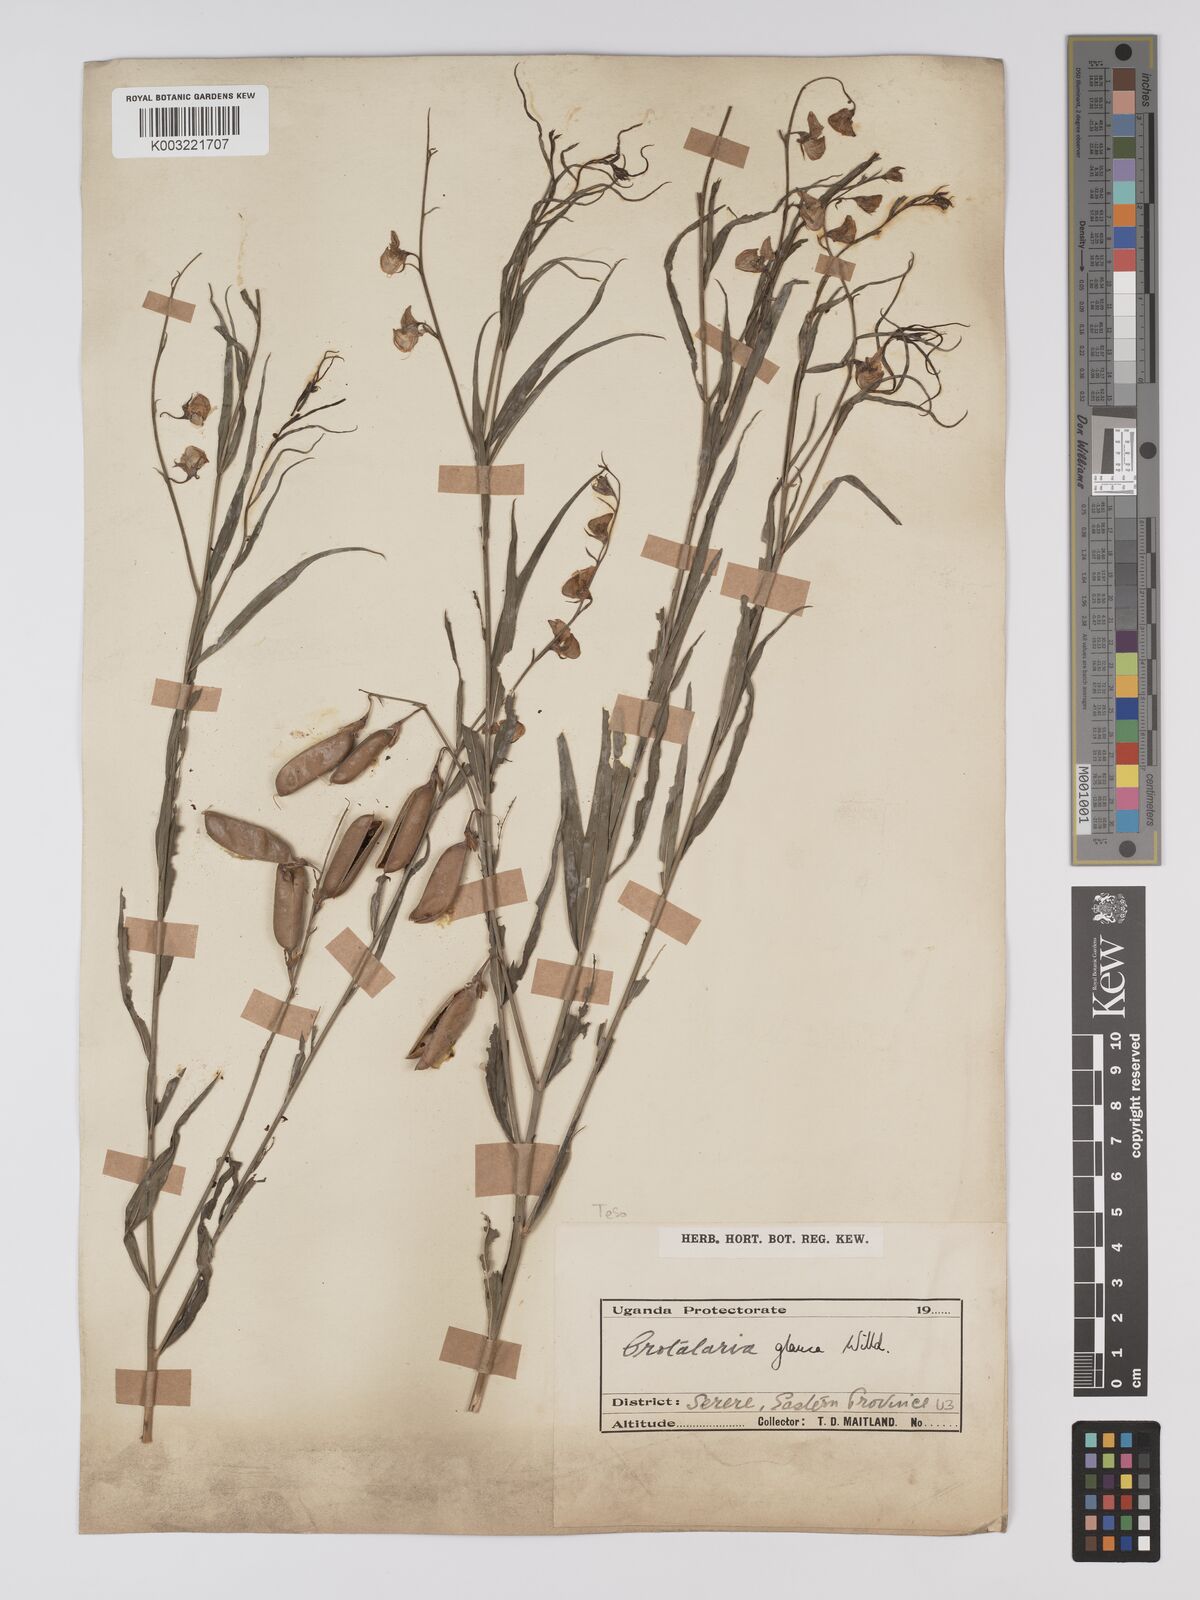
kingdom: Plantae
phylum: Tracheophyta
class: Magnoliopsida
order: Fabales
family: Fabaceae
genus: Crotalaria
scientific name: Crotalaria glauca
